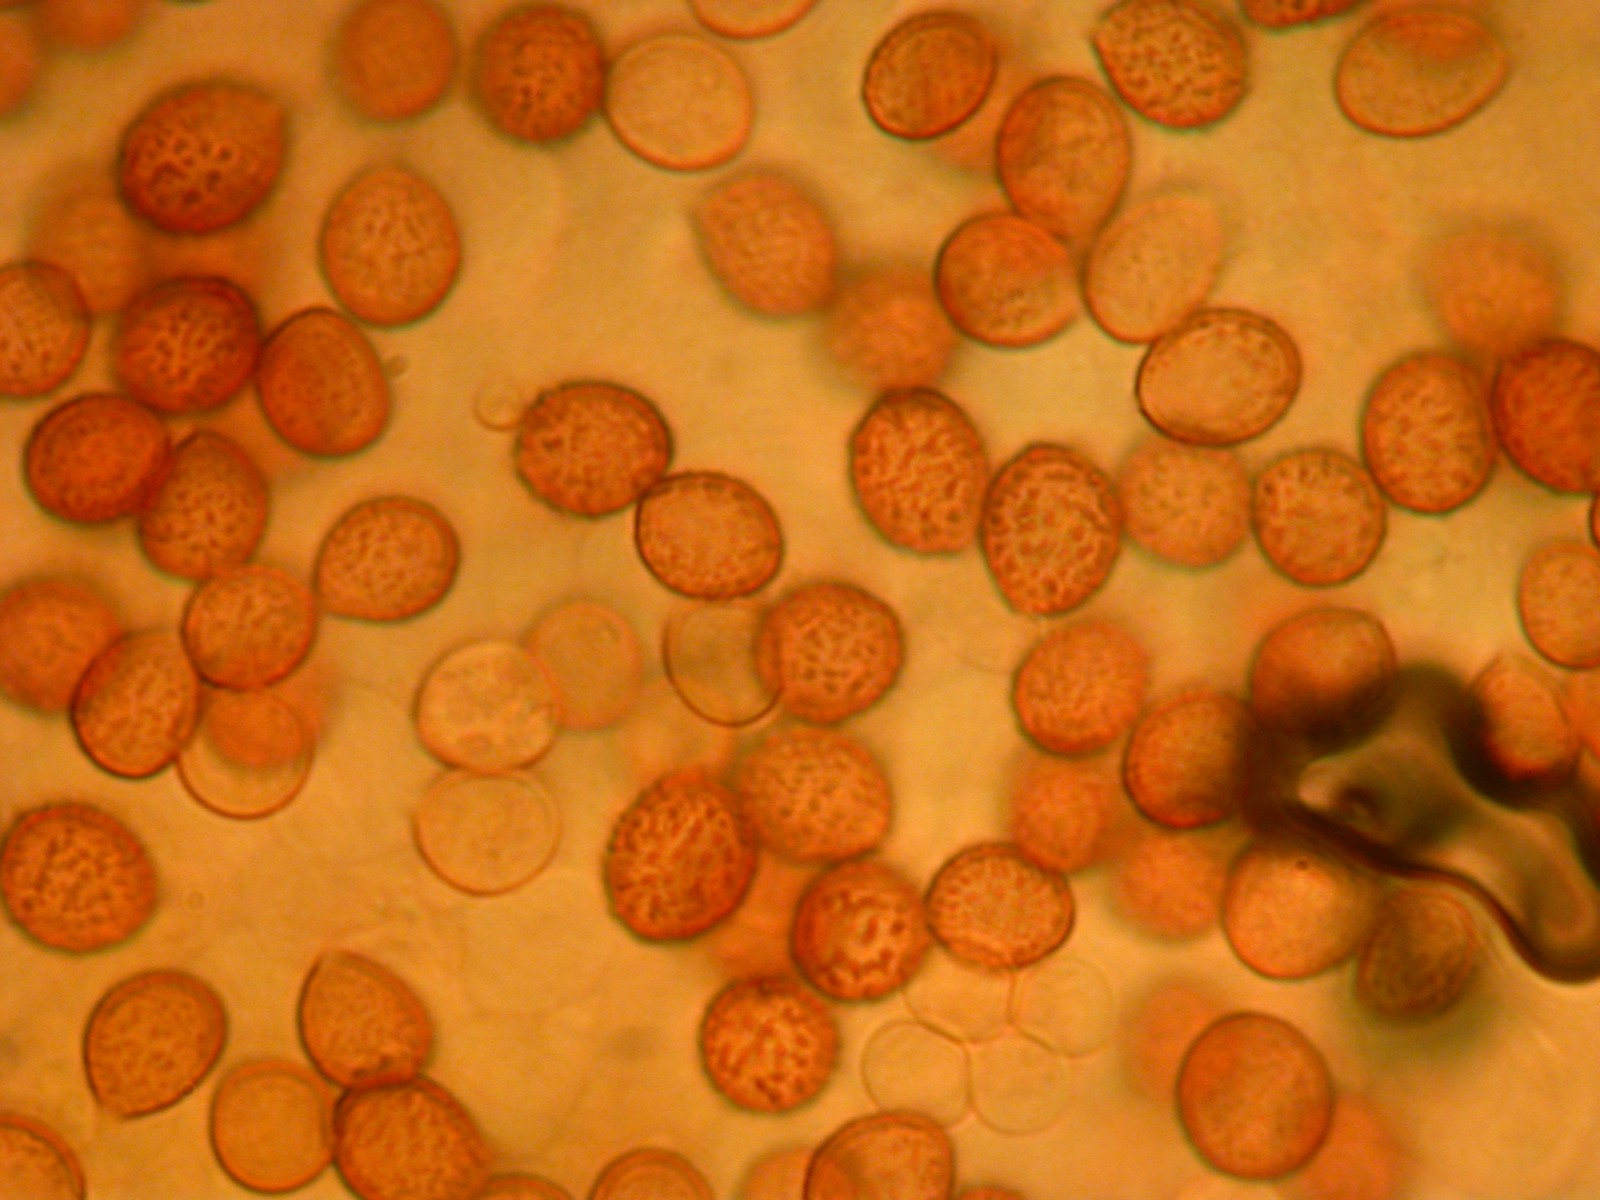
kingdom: Fungi
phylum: Basidiomycota
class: Agaricomycetes
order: Agaricales
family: Cortinariaceae
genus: Cortinarius
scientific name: Cortinarius anomalus
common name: Variable webcap
